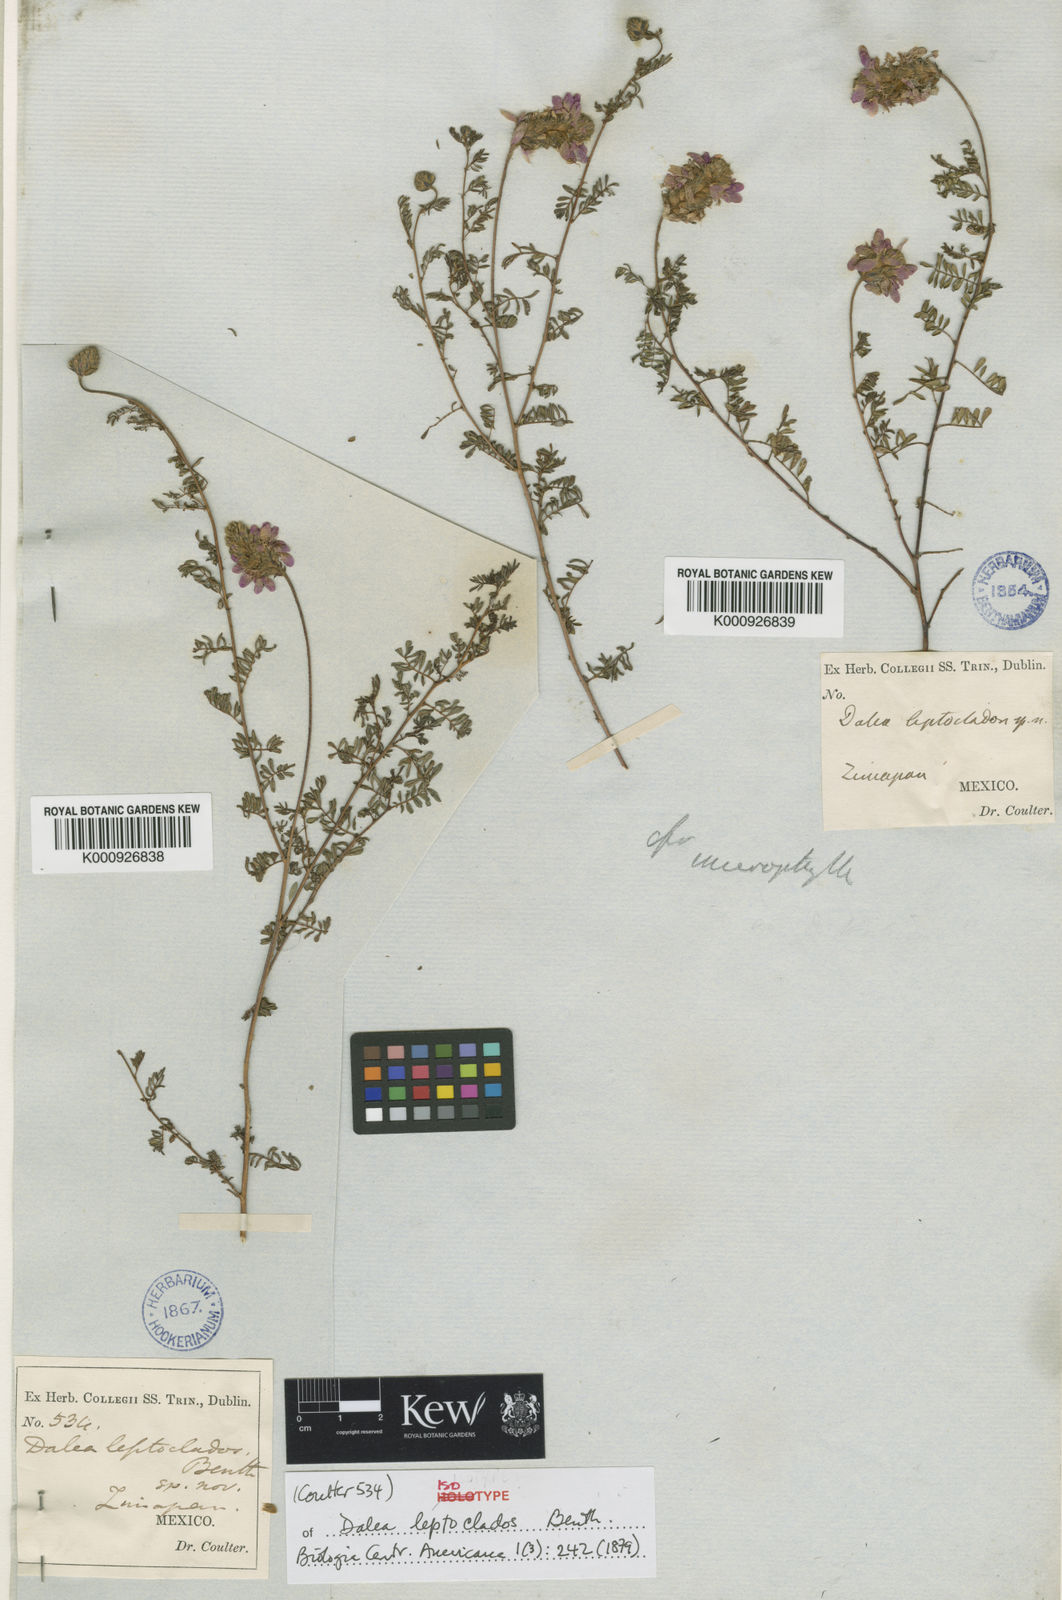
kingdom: Plantae
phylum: Tracheophyta
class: Magnoliopsida
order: Fabales
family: Fabaceae
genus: Dalea
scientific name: Dalea
